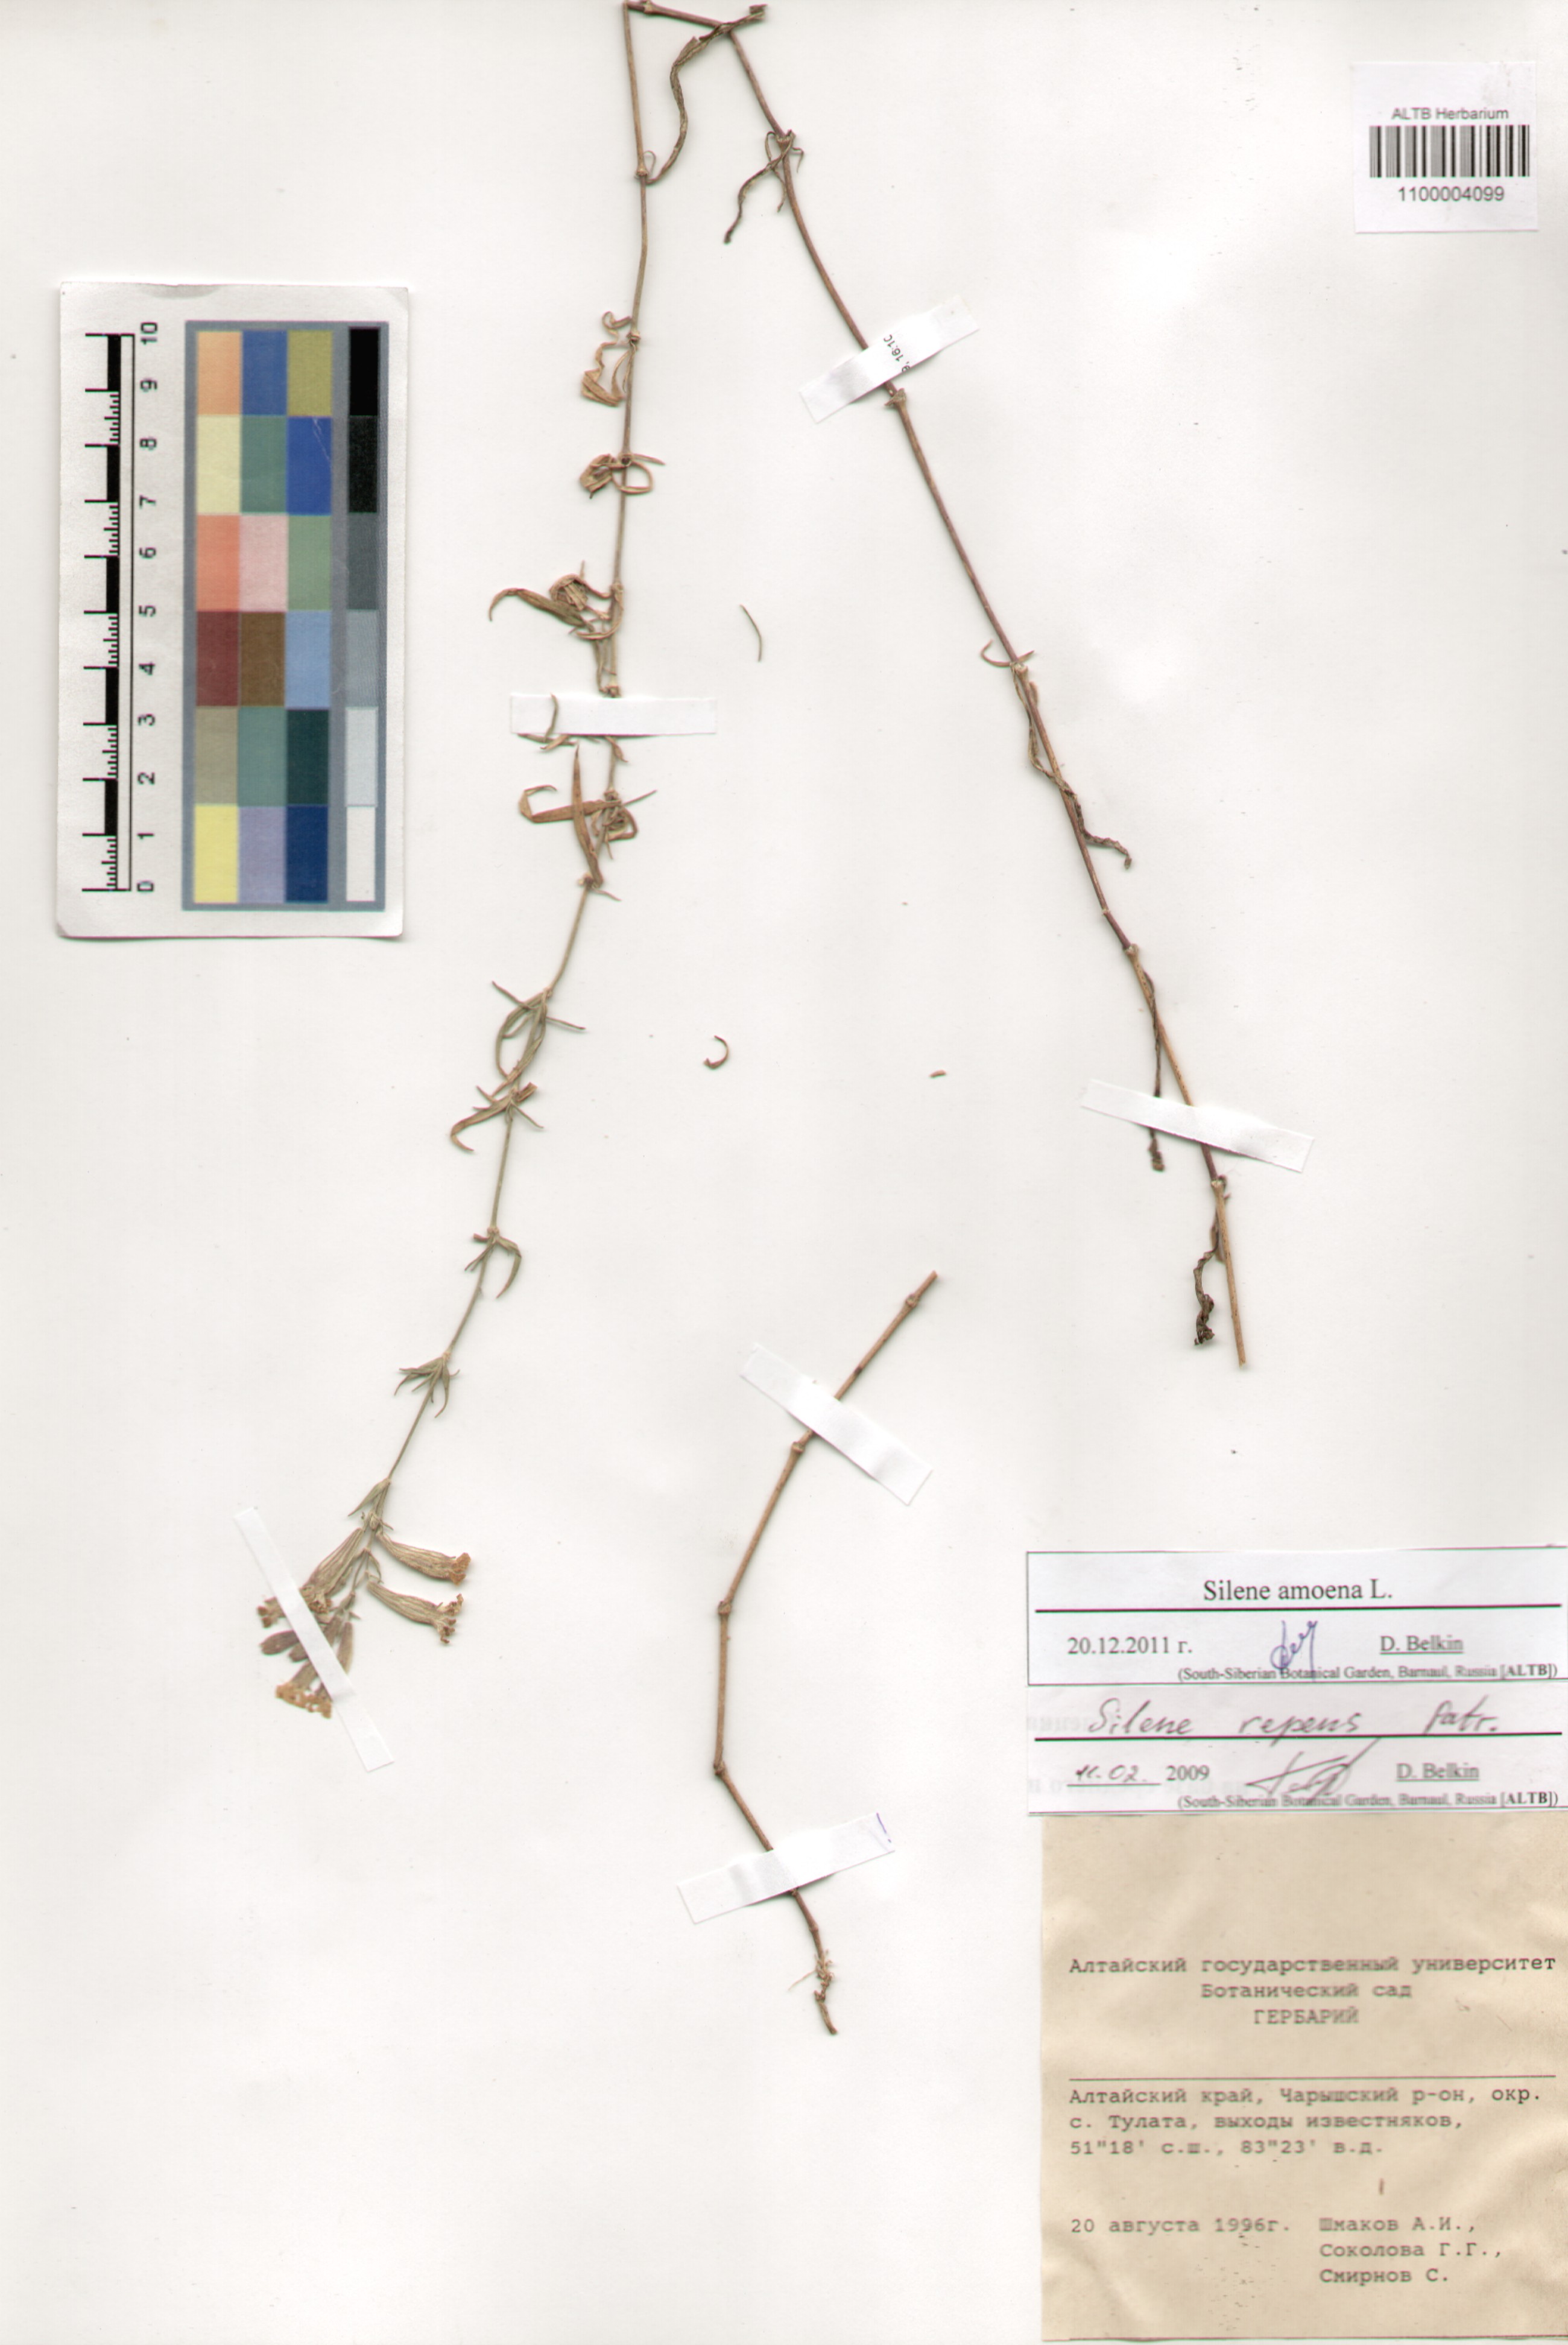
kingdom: Plantae
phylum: Tracheophyta
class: Magnoliopsida
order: Caryophyllales
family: Caryophyllaceae
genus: Silene
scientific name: Silene amoena
